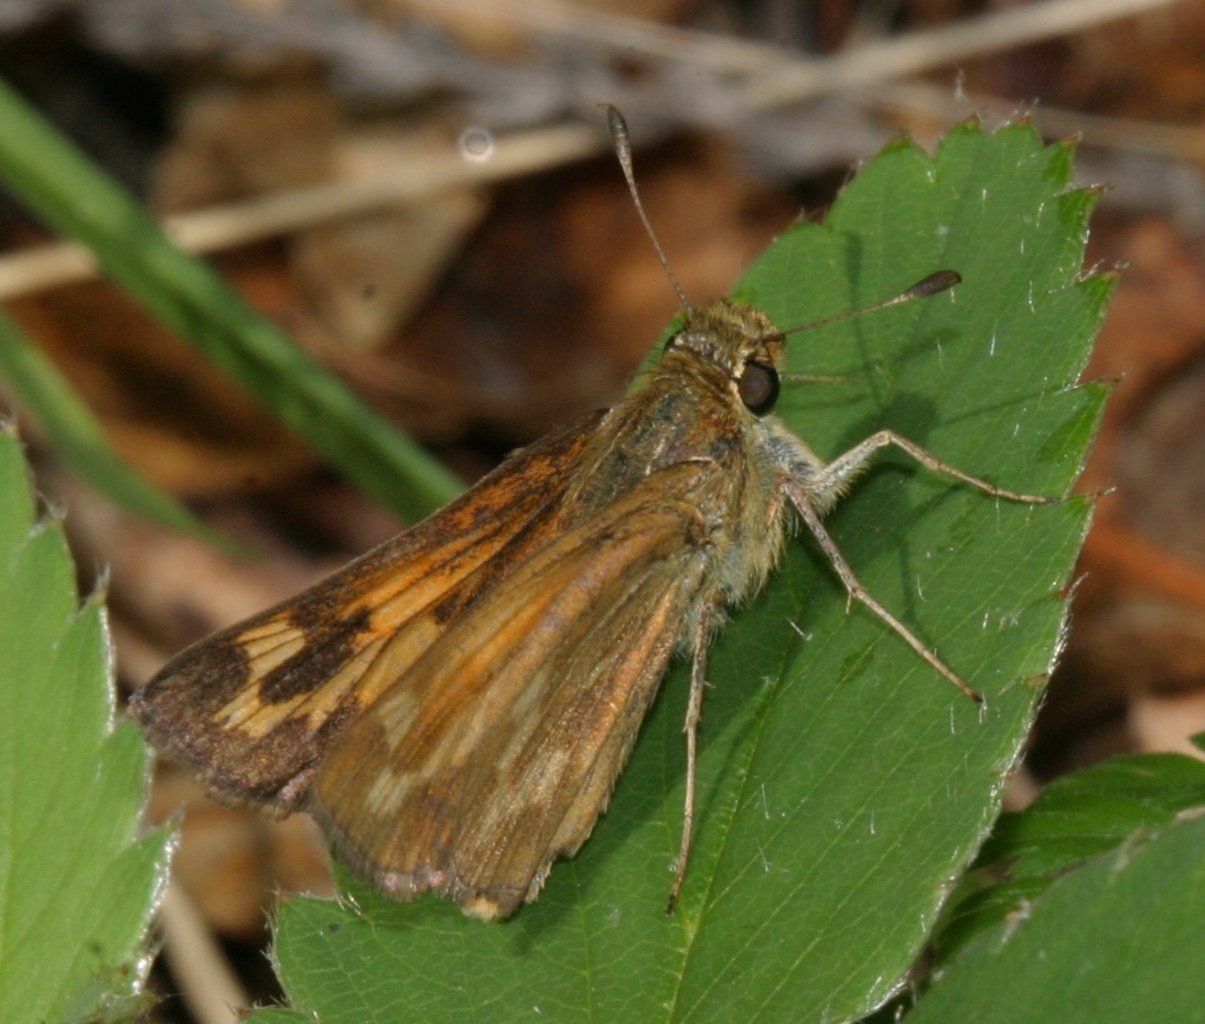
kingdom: Animalia
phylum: Arthropoda
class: Insecta
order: Lepidoptera
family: Hesperiidae
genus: Hesperia
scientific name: Hesperia sassacus
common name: Sassacus Skipper
